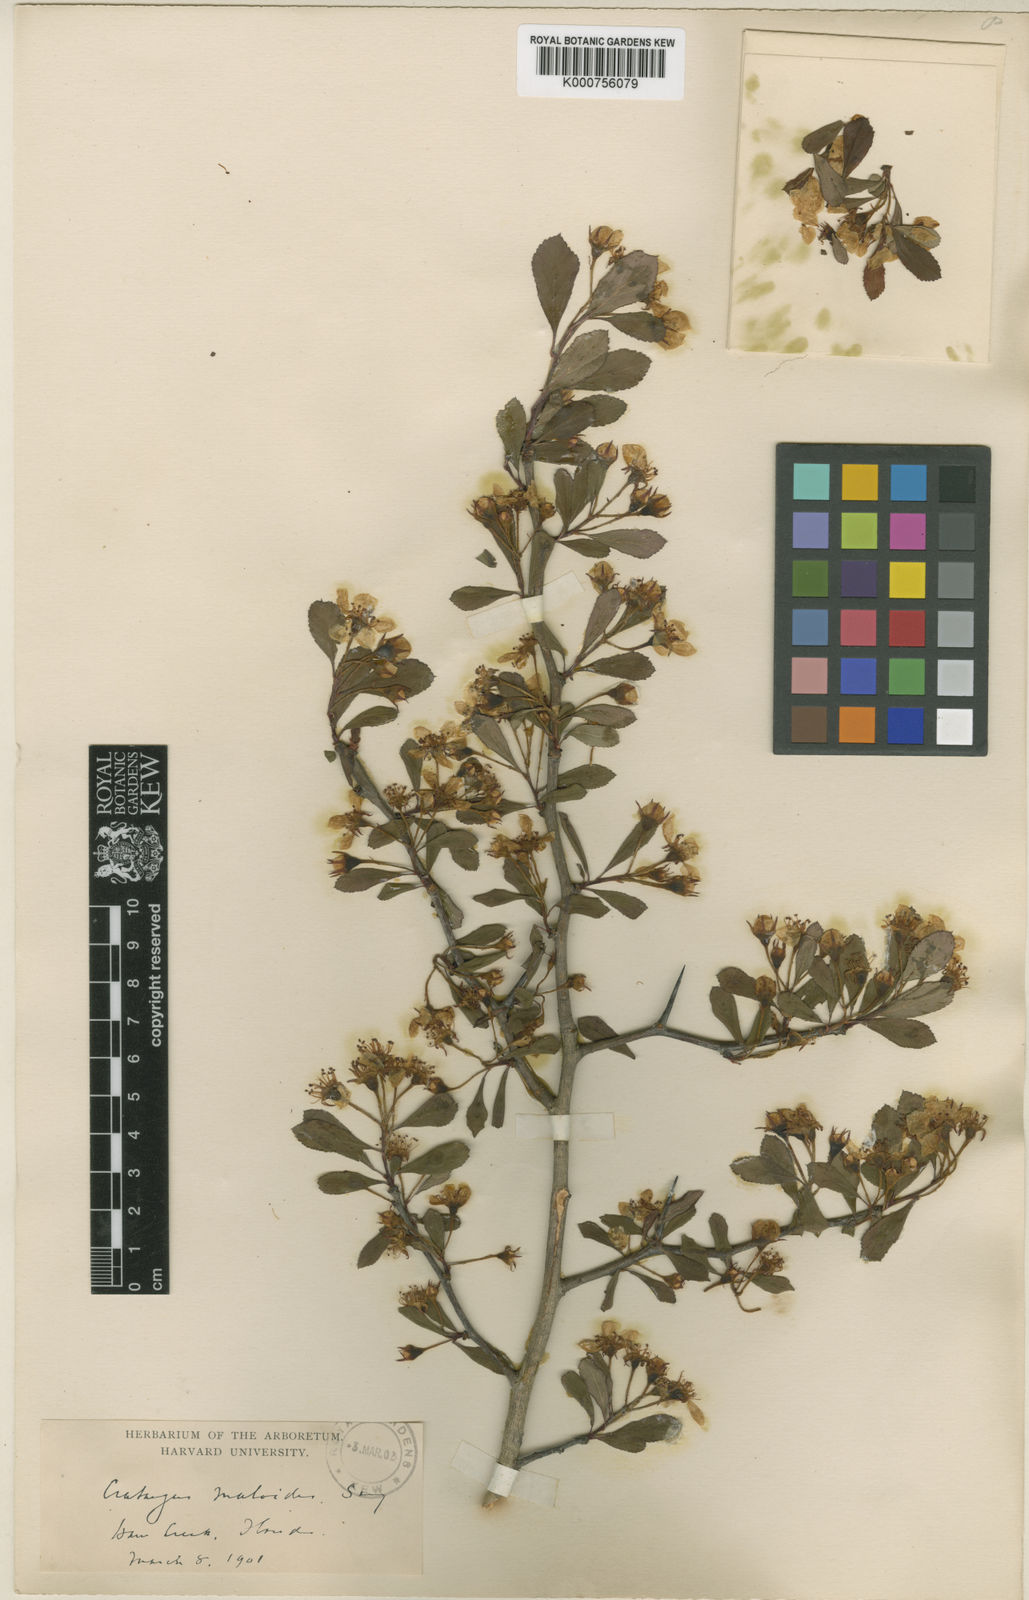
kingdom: Plantae
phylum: Tracheophyta
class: Magnoliopsida
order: Rosales
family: Rosaceae
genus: Crataegus
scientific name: Crataegus aestivalis
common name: Mayhaw
